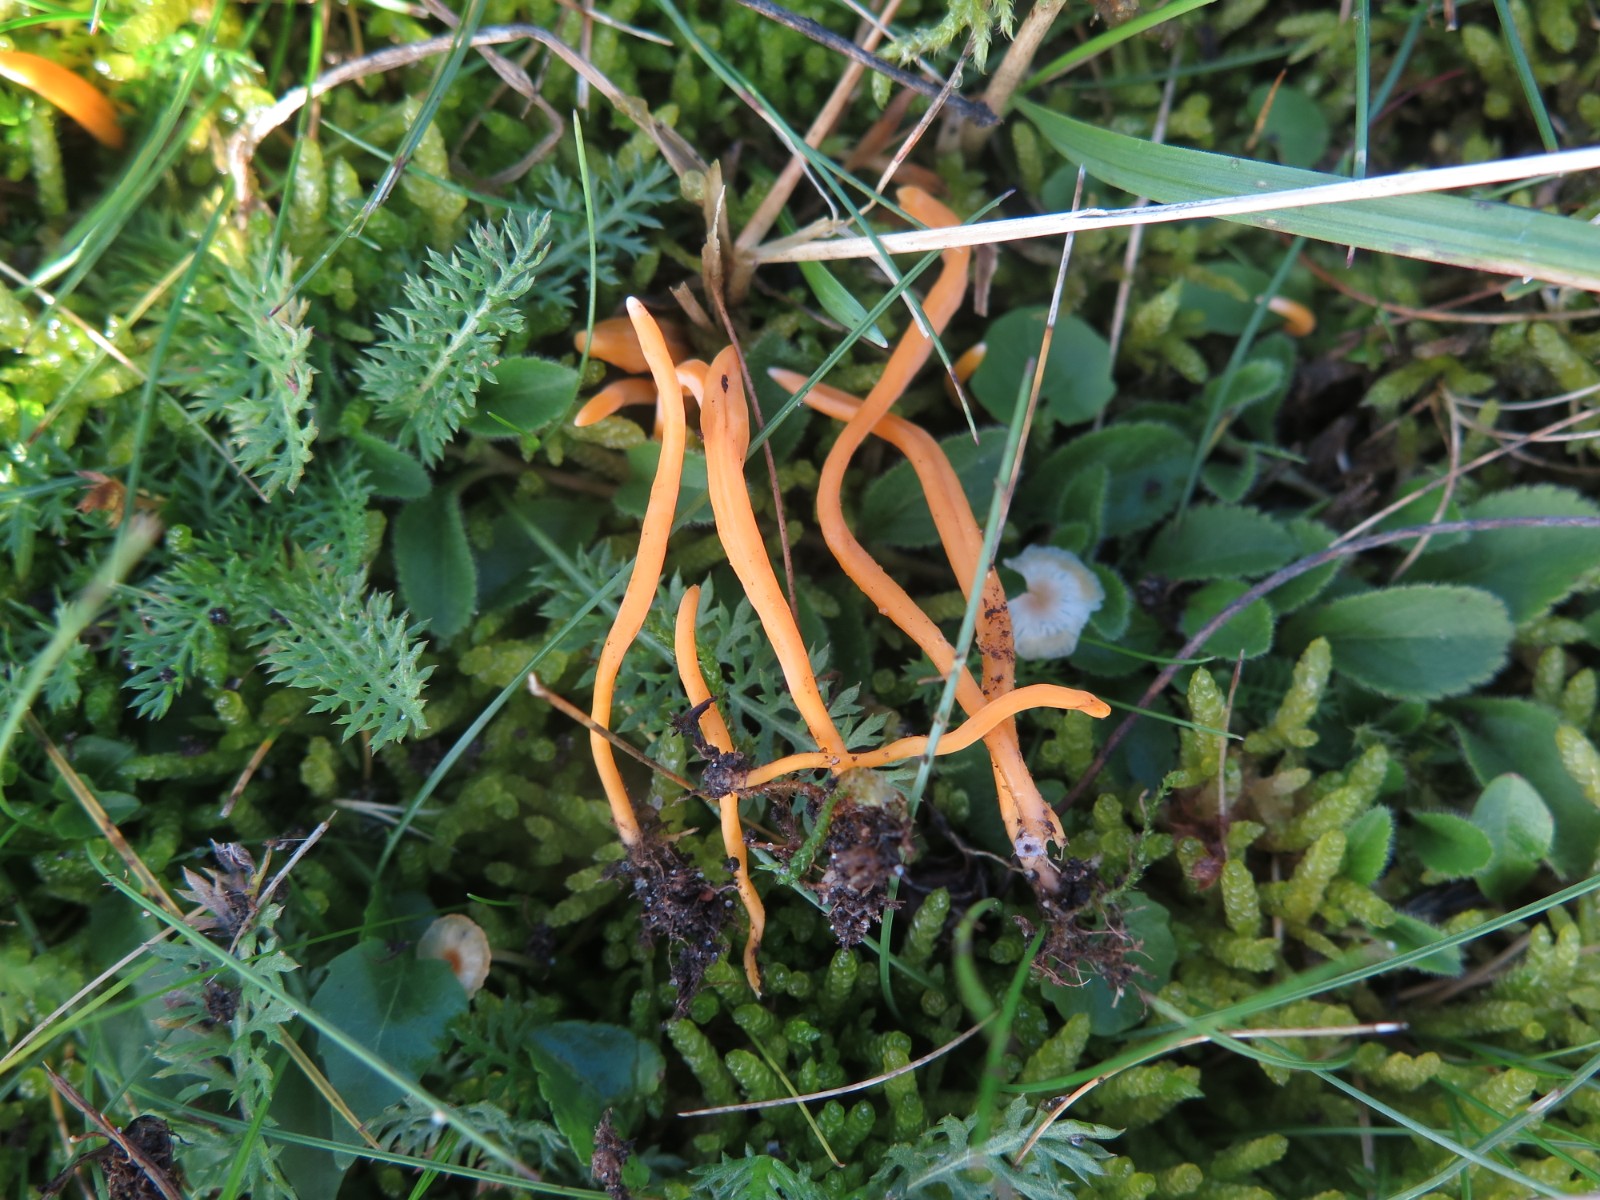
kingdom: Fungi
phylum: Basidiomycota
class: Agaricomycetes
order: Agaricales
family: Clavariaceae
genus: Clavulinopsis
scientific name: Clavulinopsis luteoalba
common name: abrikos-køllesvamp
